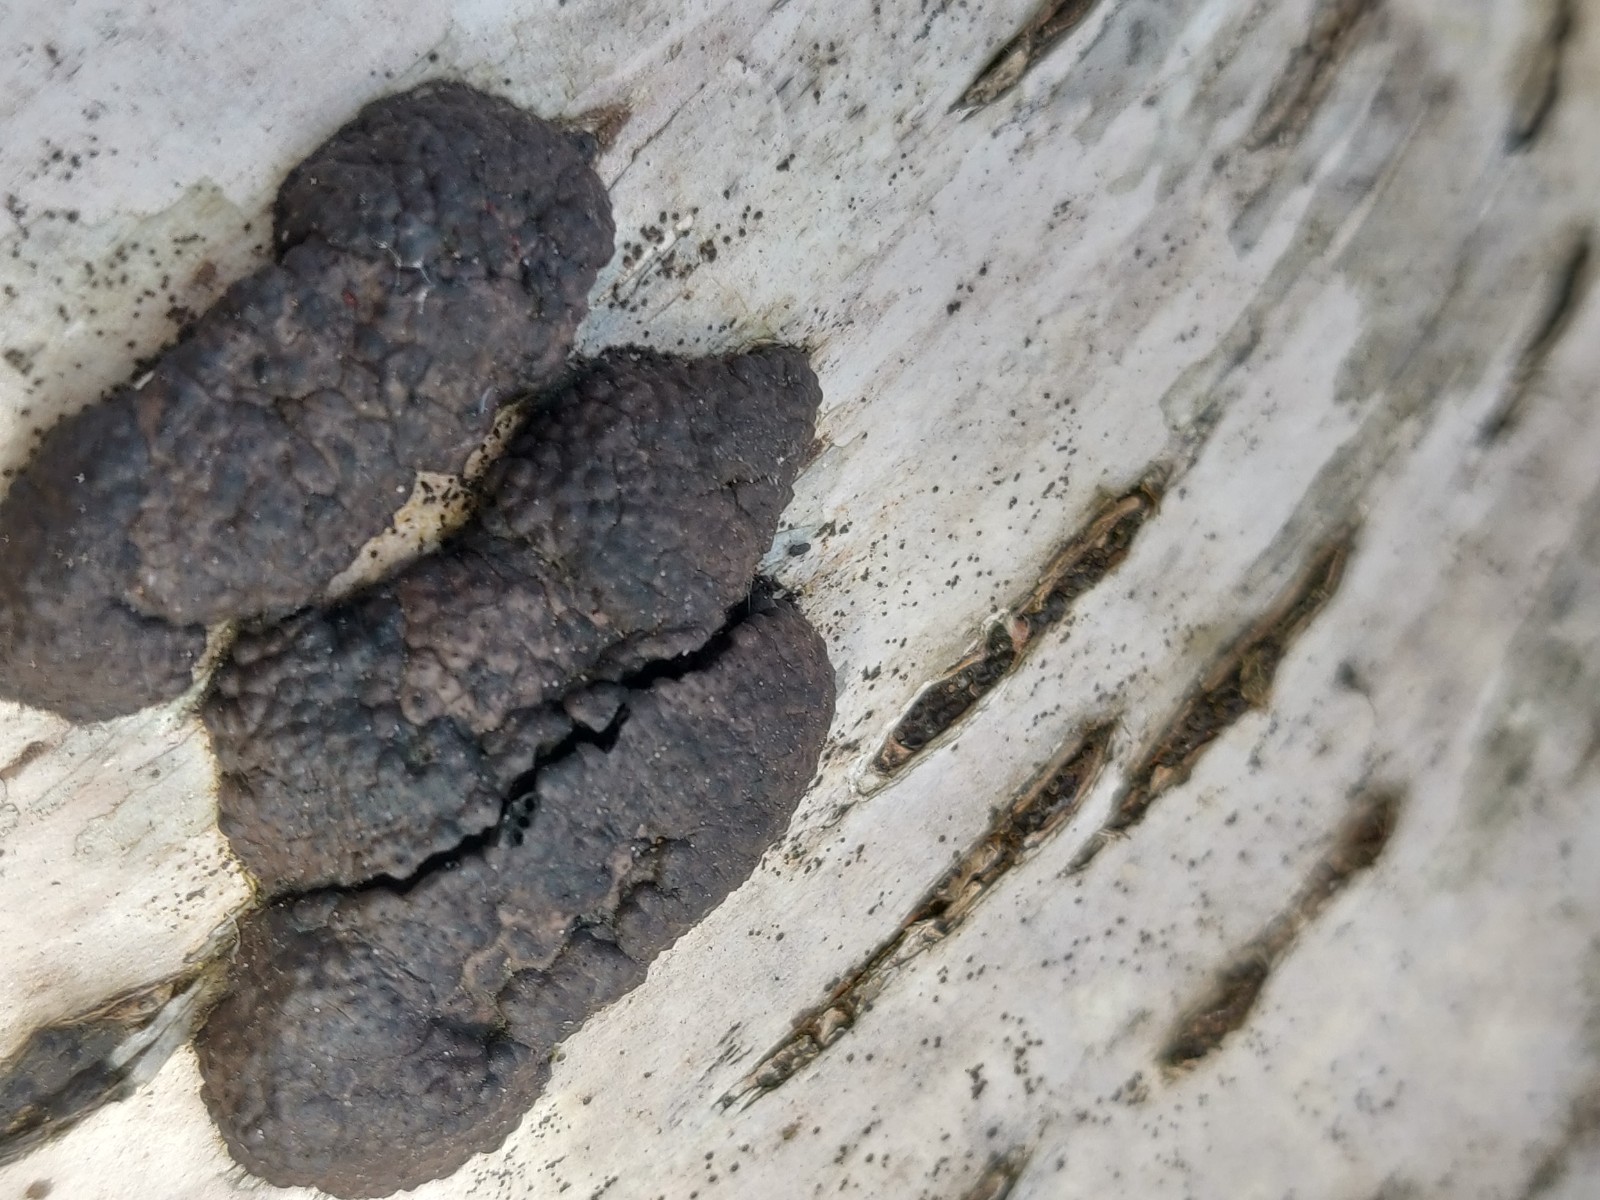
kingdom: Fungi
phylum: Ascomycota
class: Sordariomycetes
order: Xylariales
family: Hypoxylaceae
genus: Jackrogersella
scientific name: Jackrogersella multiformis
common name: foranderlig kulbær
